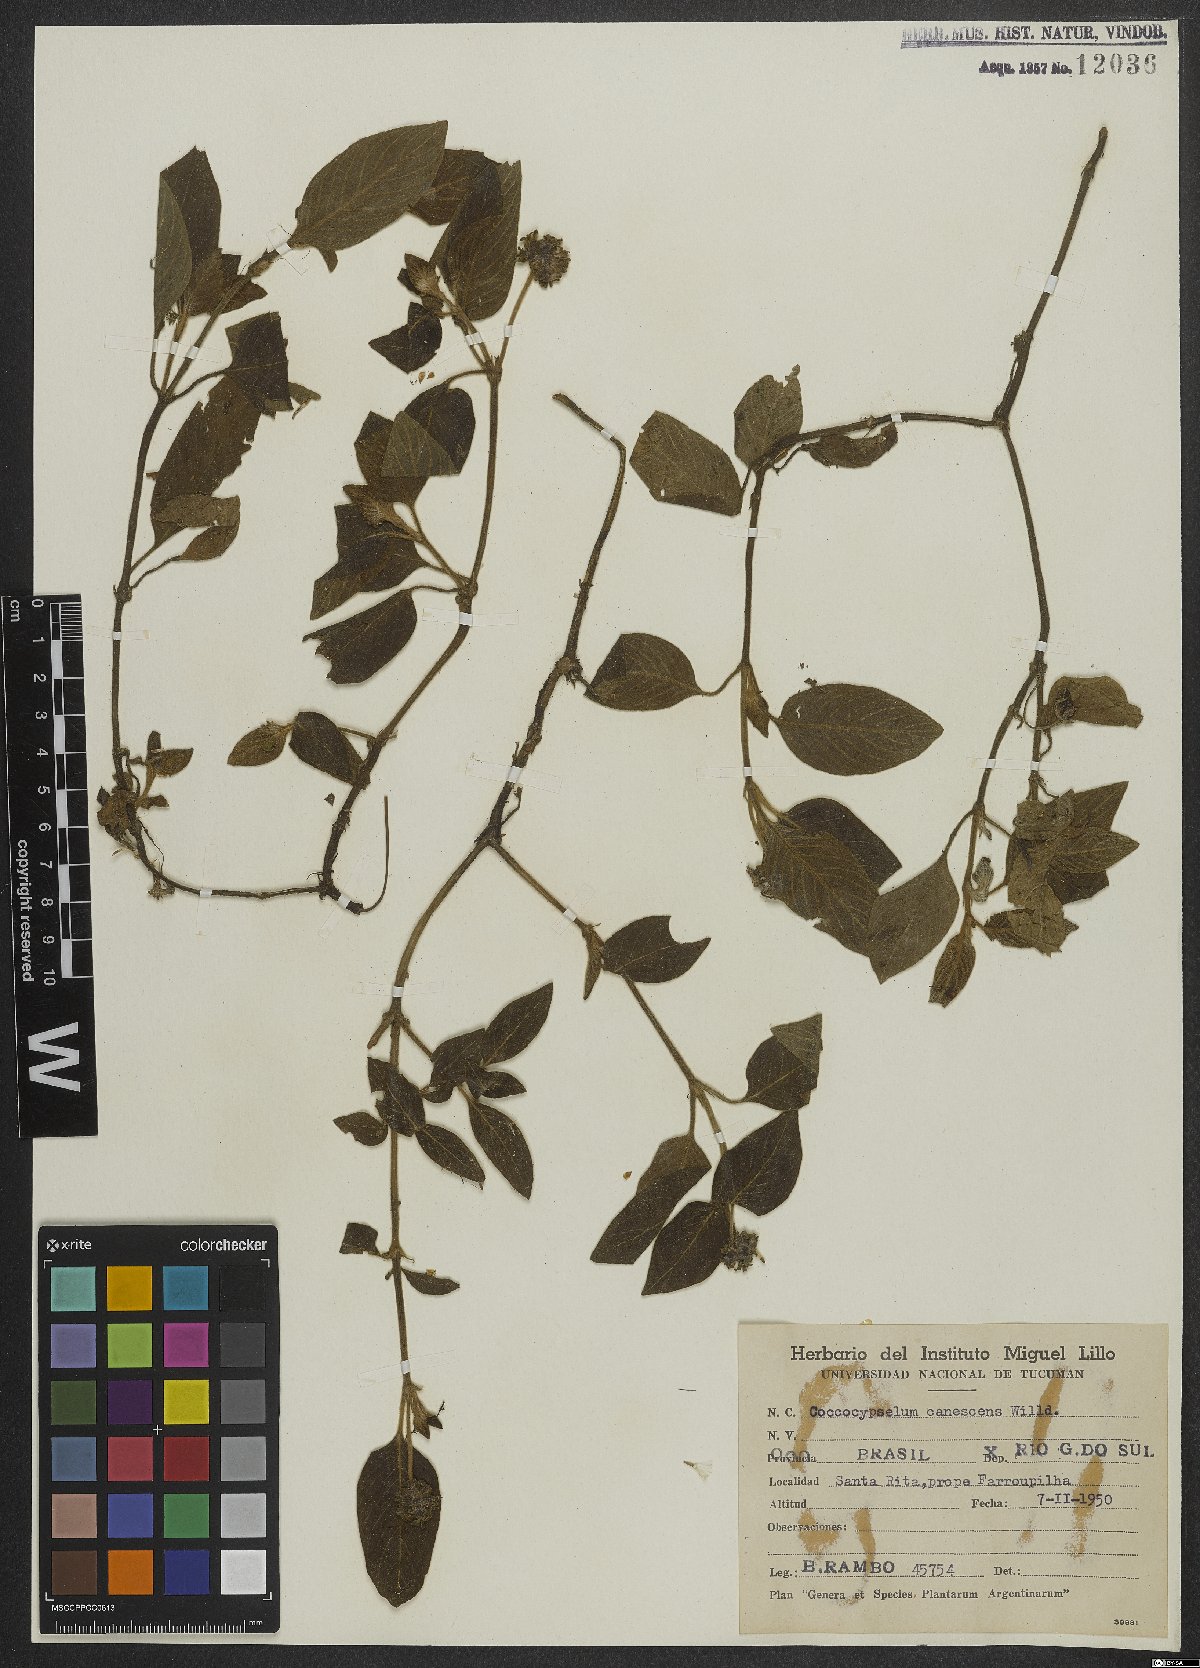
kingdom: Plantae
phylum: Tracheophyta
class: Magnoliopsida
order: Gentianales
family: Rubiaceae
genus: Coccocypselum
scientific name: Coccocypselum lanceolatum
